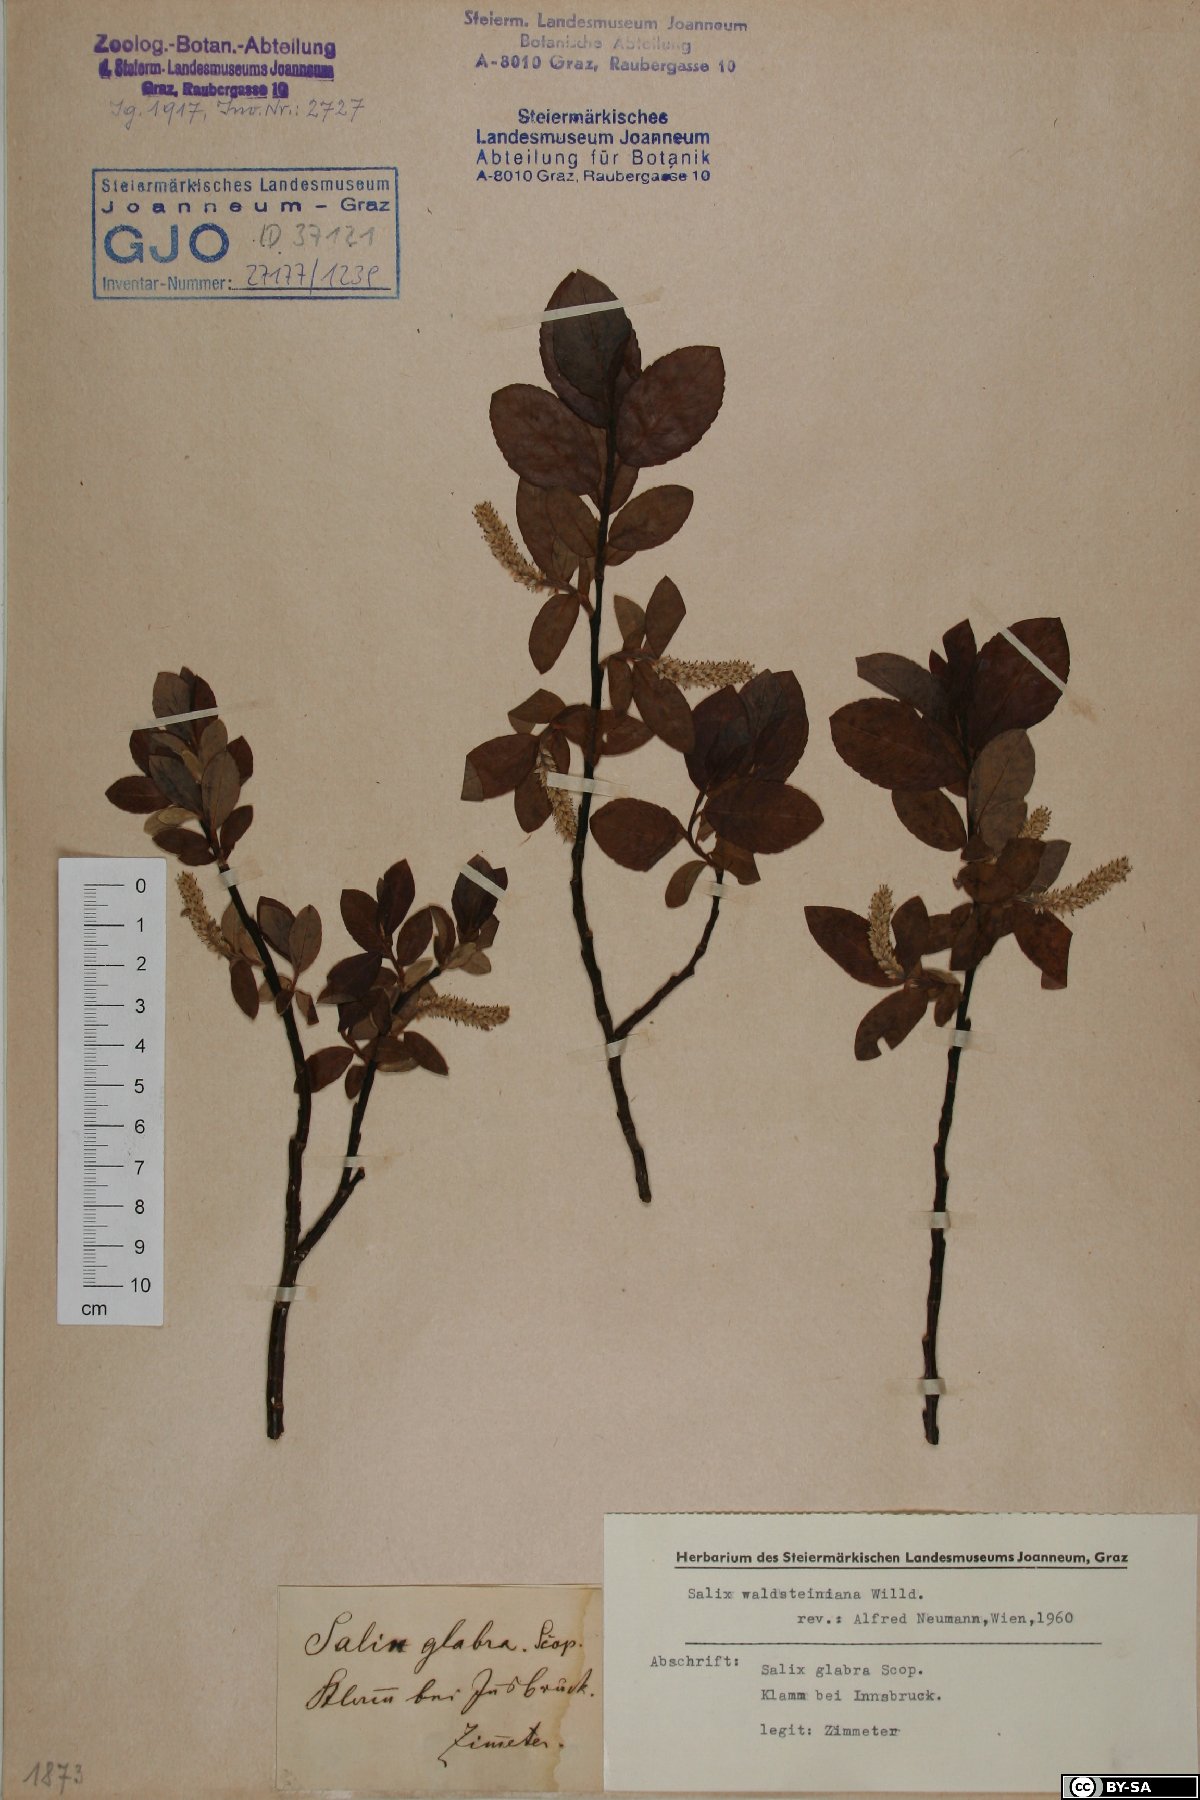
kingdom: Plantae
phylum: Tracheophyta
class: Magnoliopsida
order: Malpighiales
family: Salicaceae
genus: Salix
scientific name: Salix waldsteiniana
